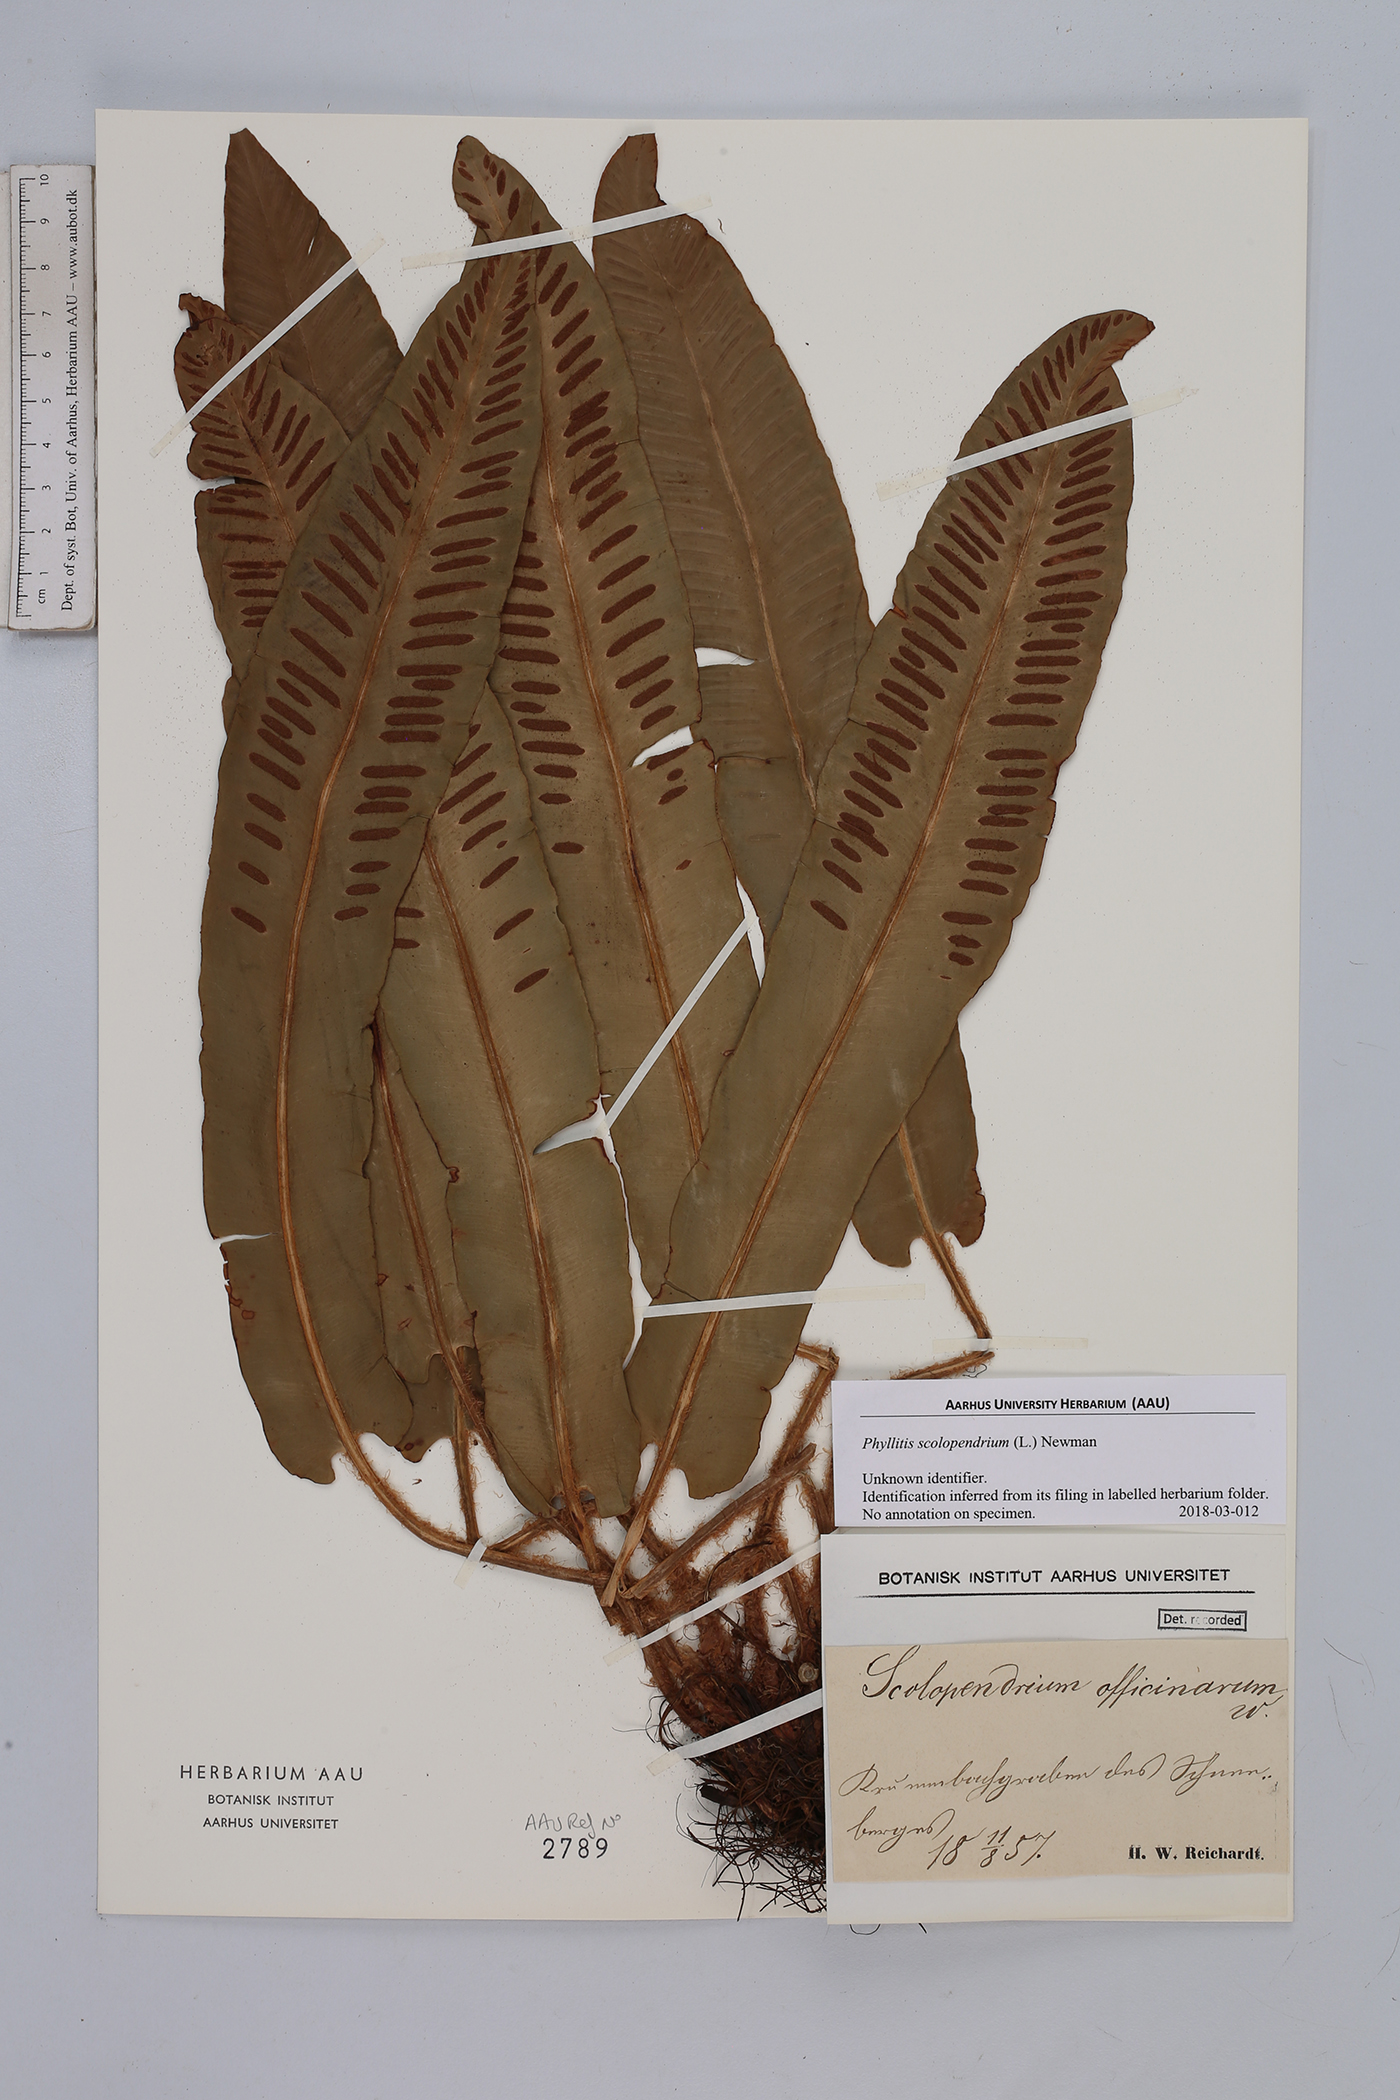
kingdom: Plantae
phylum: Tracheophyta
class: Polypodiopsida
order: Polypodiales
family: Aspleniaceae
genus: Asplenium
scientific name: Asplenium scolopendrium
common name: Hart's-tongue fern
